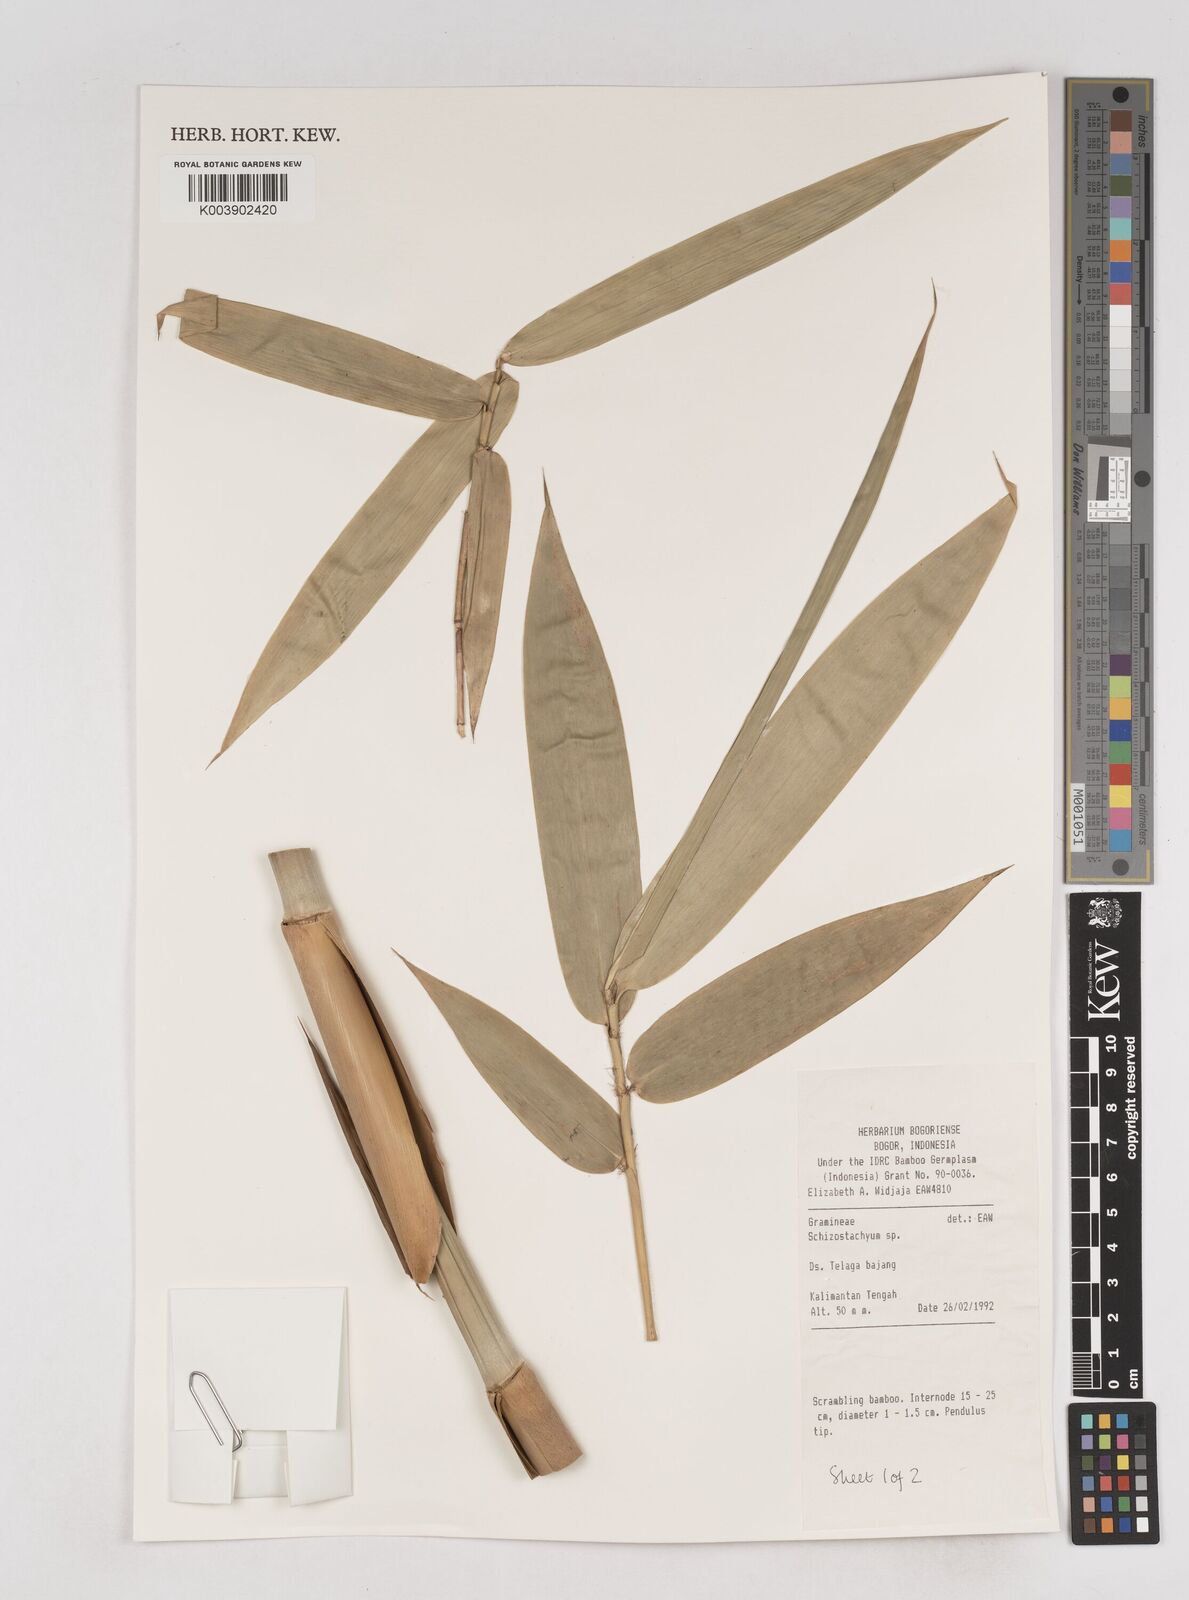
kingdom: Plantae
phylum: Tracheophyta
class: Liliopsida
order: Poales
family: Poaceae
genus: Schizostachyum
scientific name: Schizostachyum
